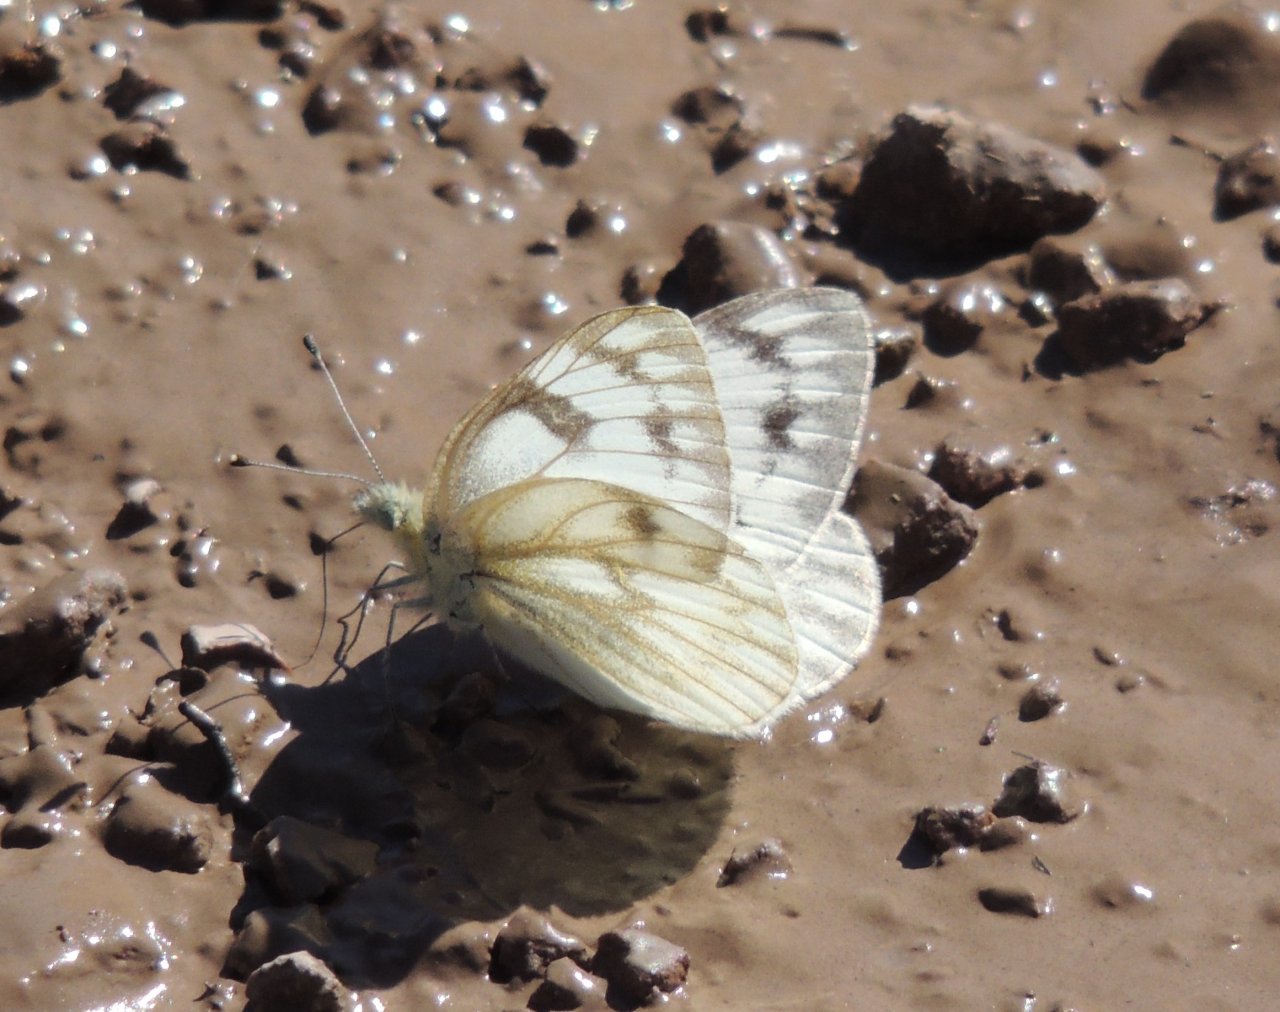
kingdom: Animalia
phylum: Arthropoda
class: Insecta
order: Lepidoptera
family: Pieridae
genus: Pontia
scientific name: Pontia protodice
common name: Checkered White
